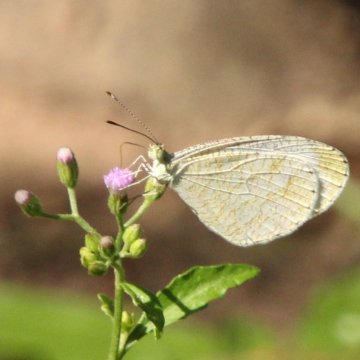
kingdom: Animalia
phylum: Arthropoda
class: Insecta
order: Lepidoptera
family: Pieridae
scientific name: Pieridae
